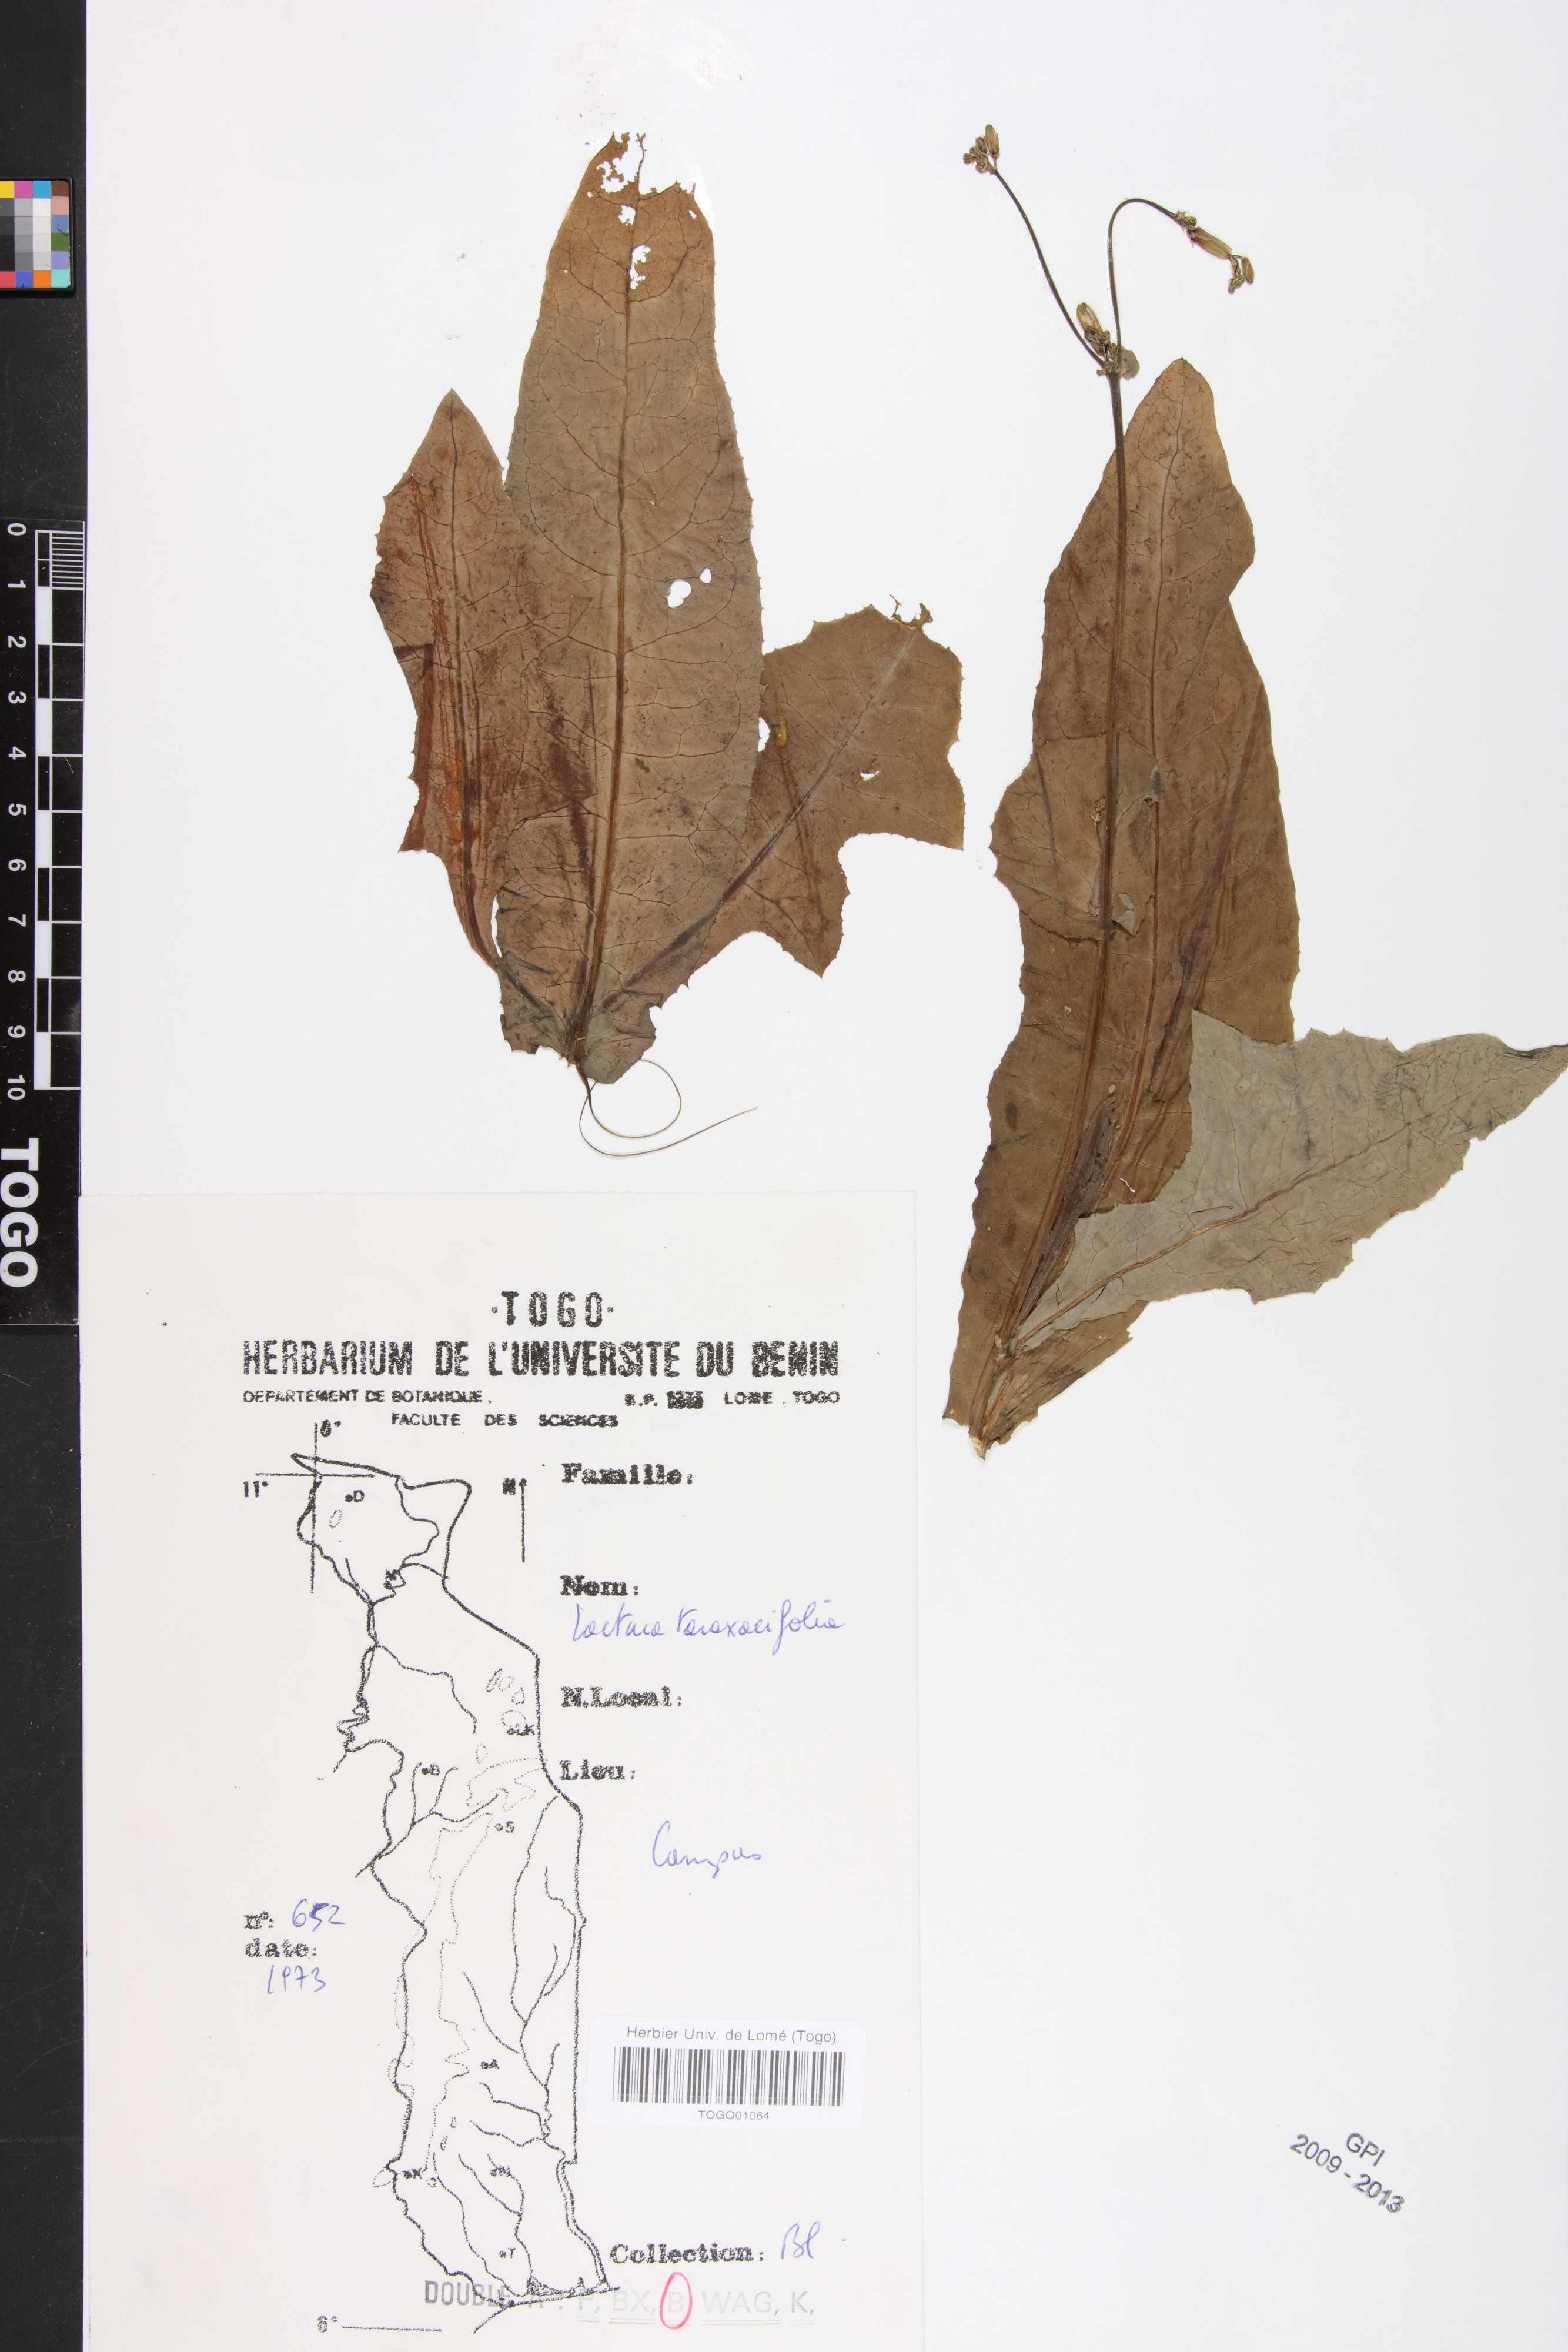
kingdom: Plantae
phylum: Tracheophyta
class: Magnoliopsida
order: Asterales
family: Asteraceae
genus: Launaea
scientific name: Launaea taraxacifolia
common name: African-lettuce
